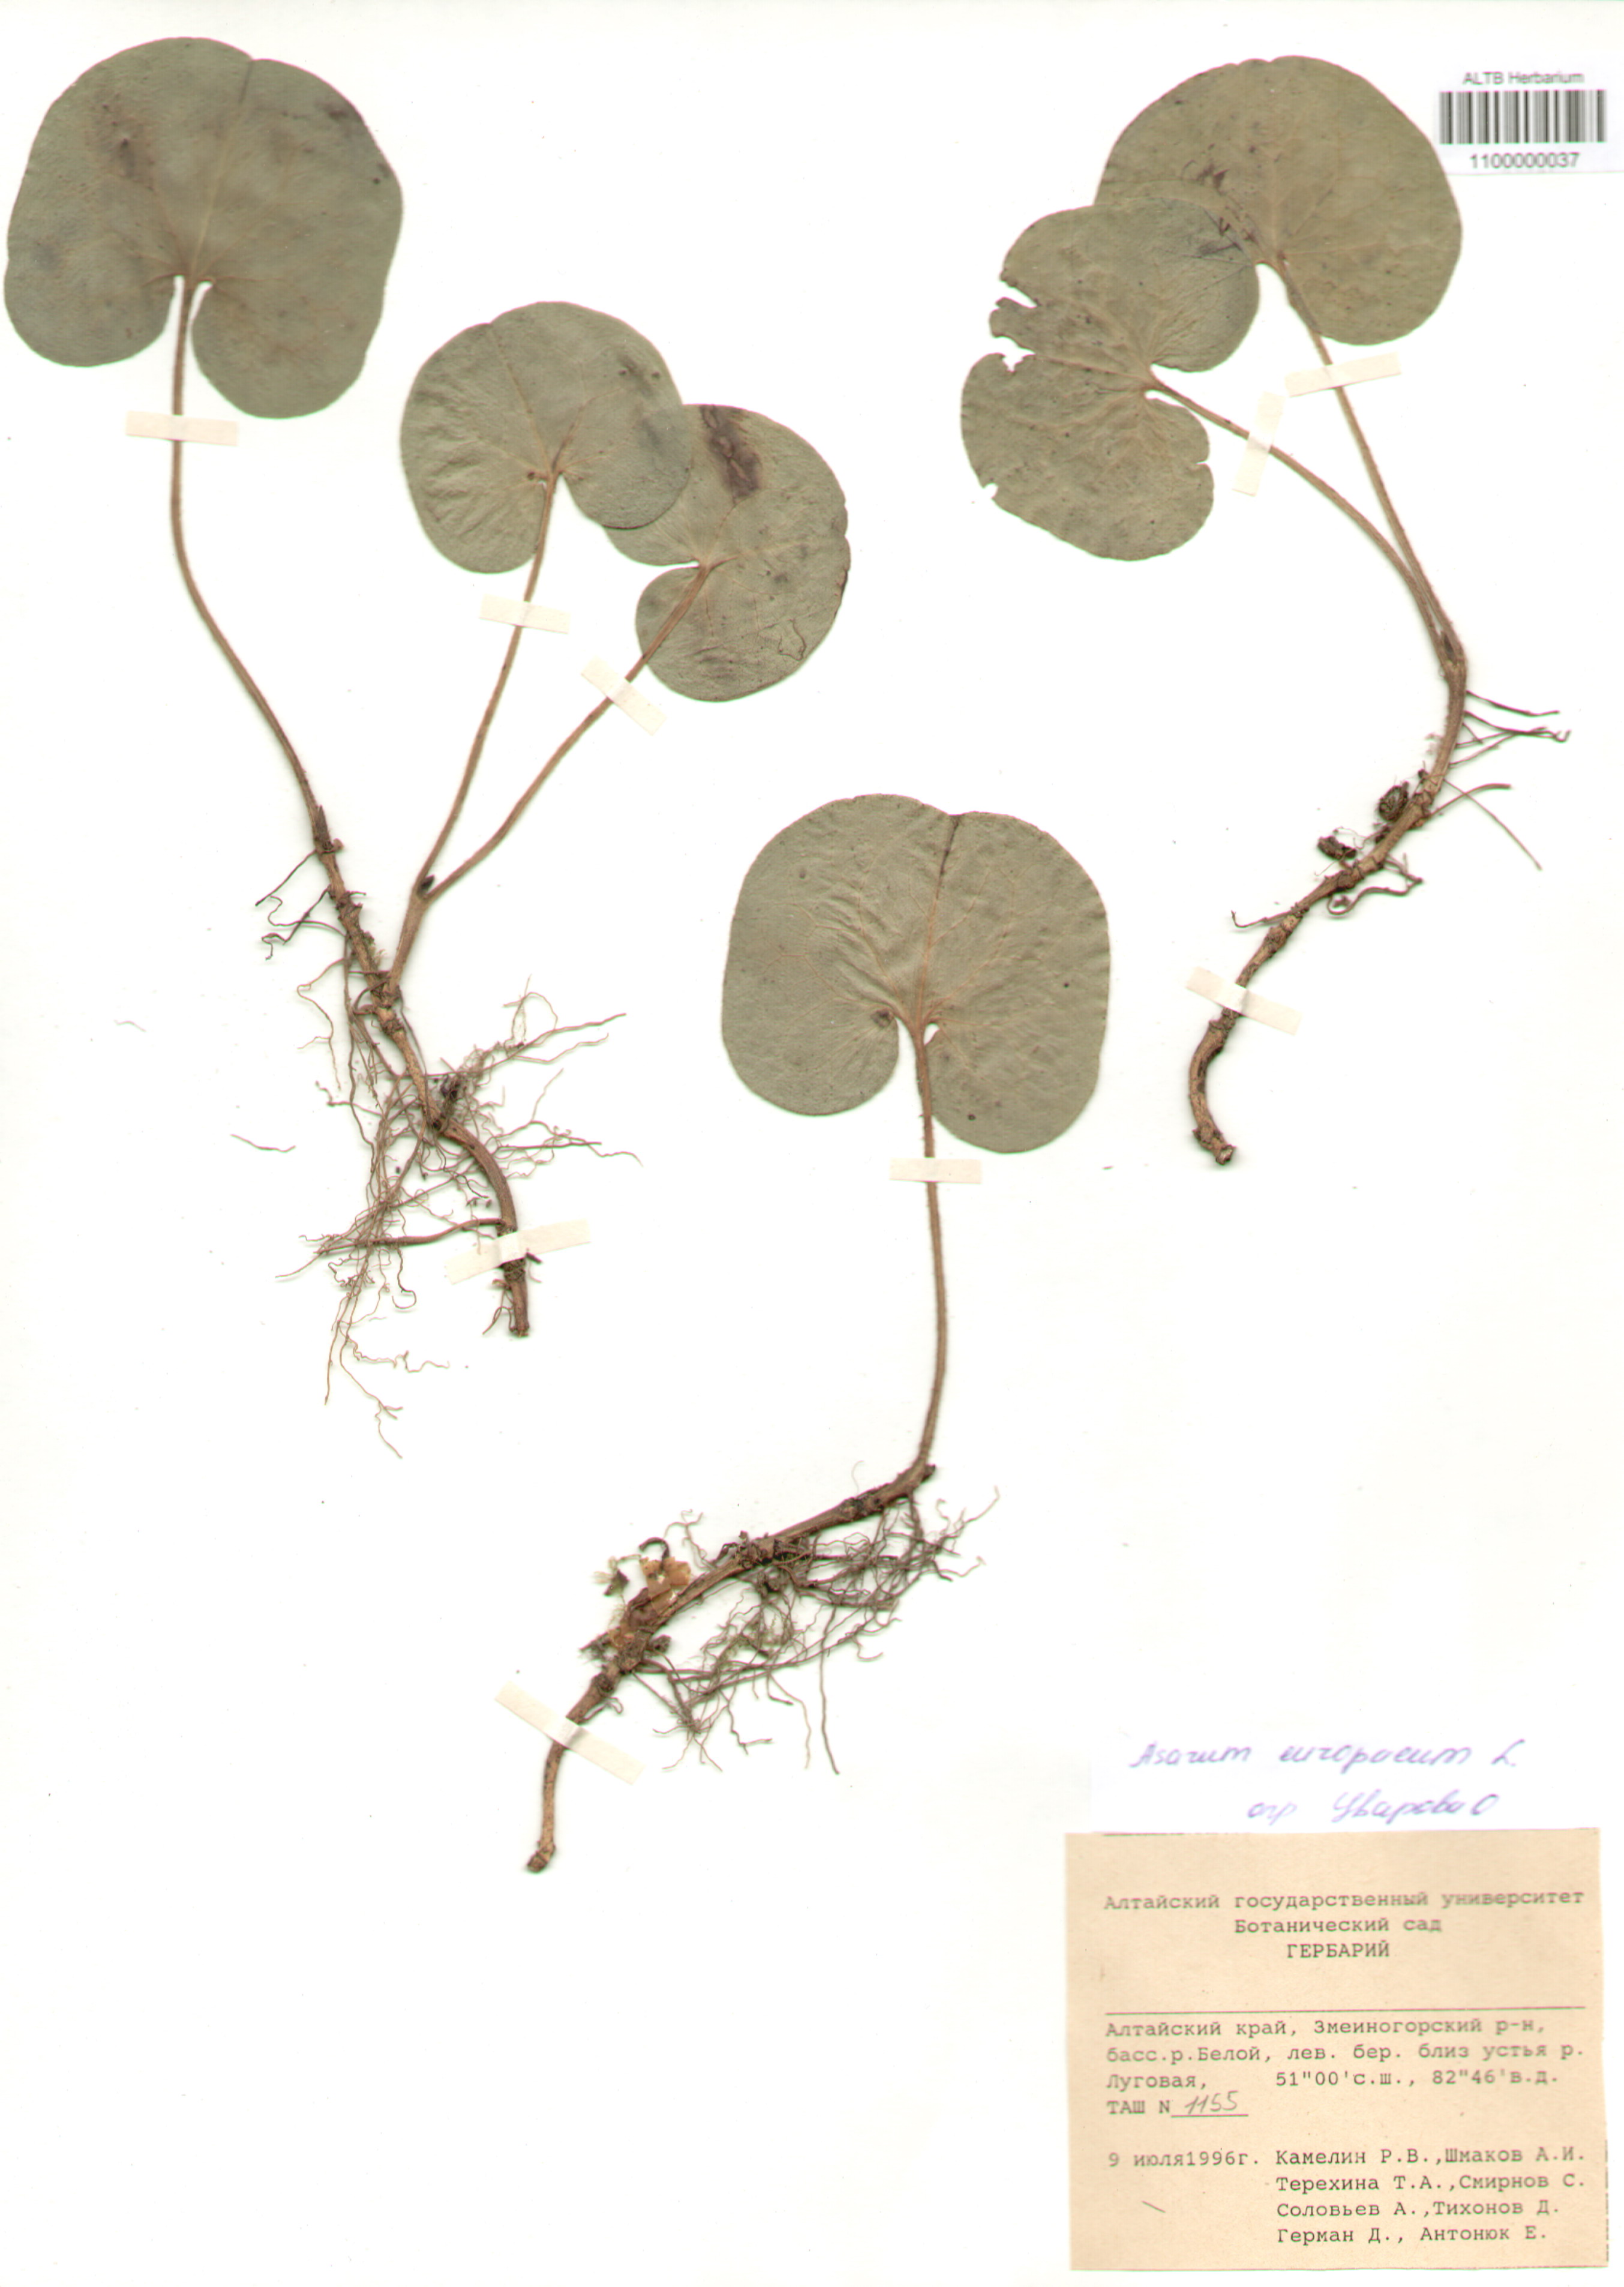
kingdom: Plantae
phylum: Tracheophyta
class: Magnoliopsida
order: Piperales
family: Aristolochiaceae
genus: Asarum
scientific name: Asarum europaeum
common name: Asarabacca
